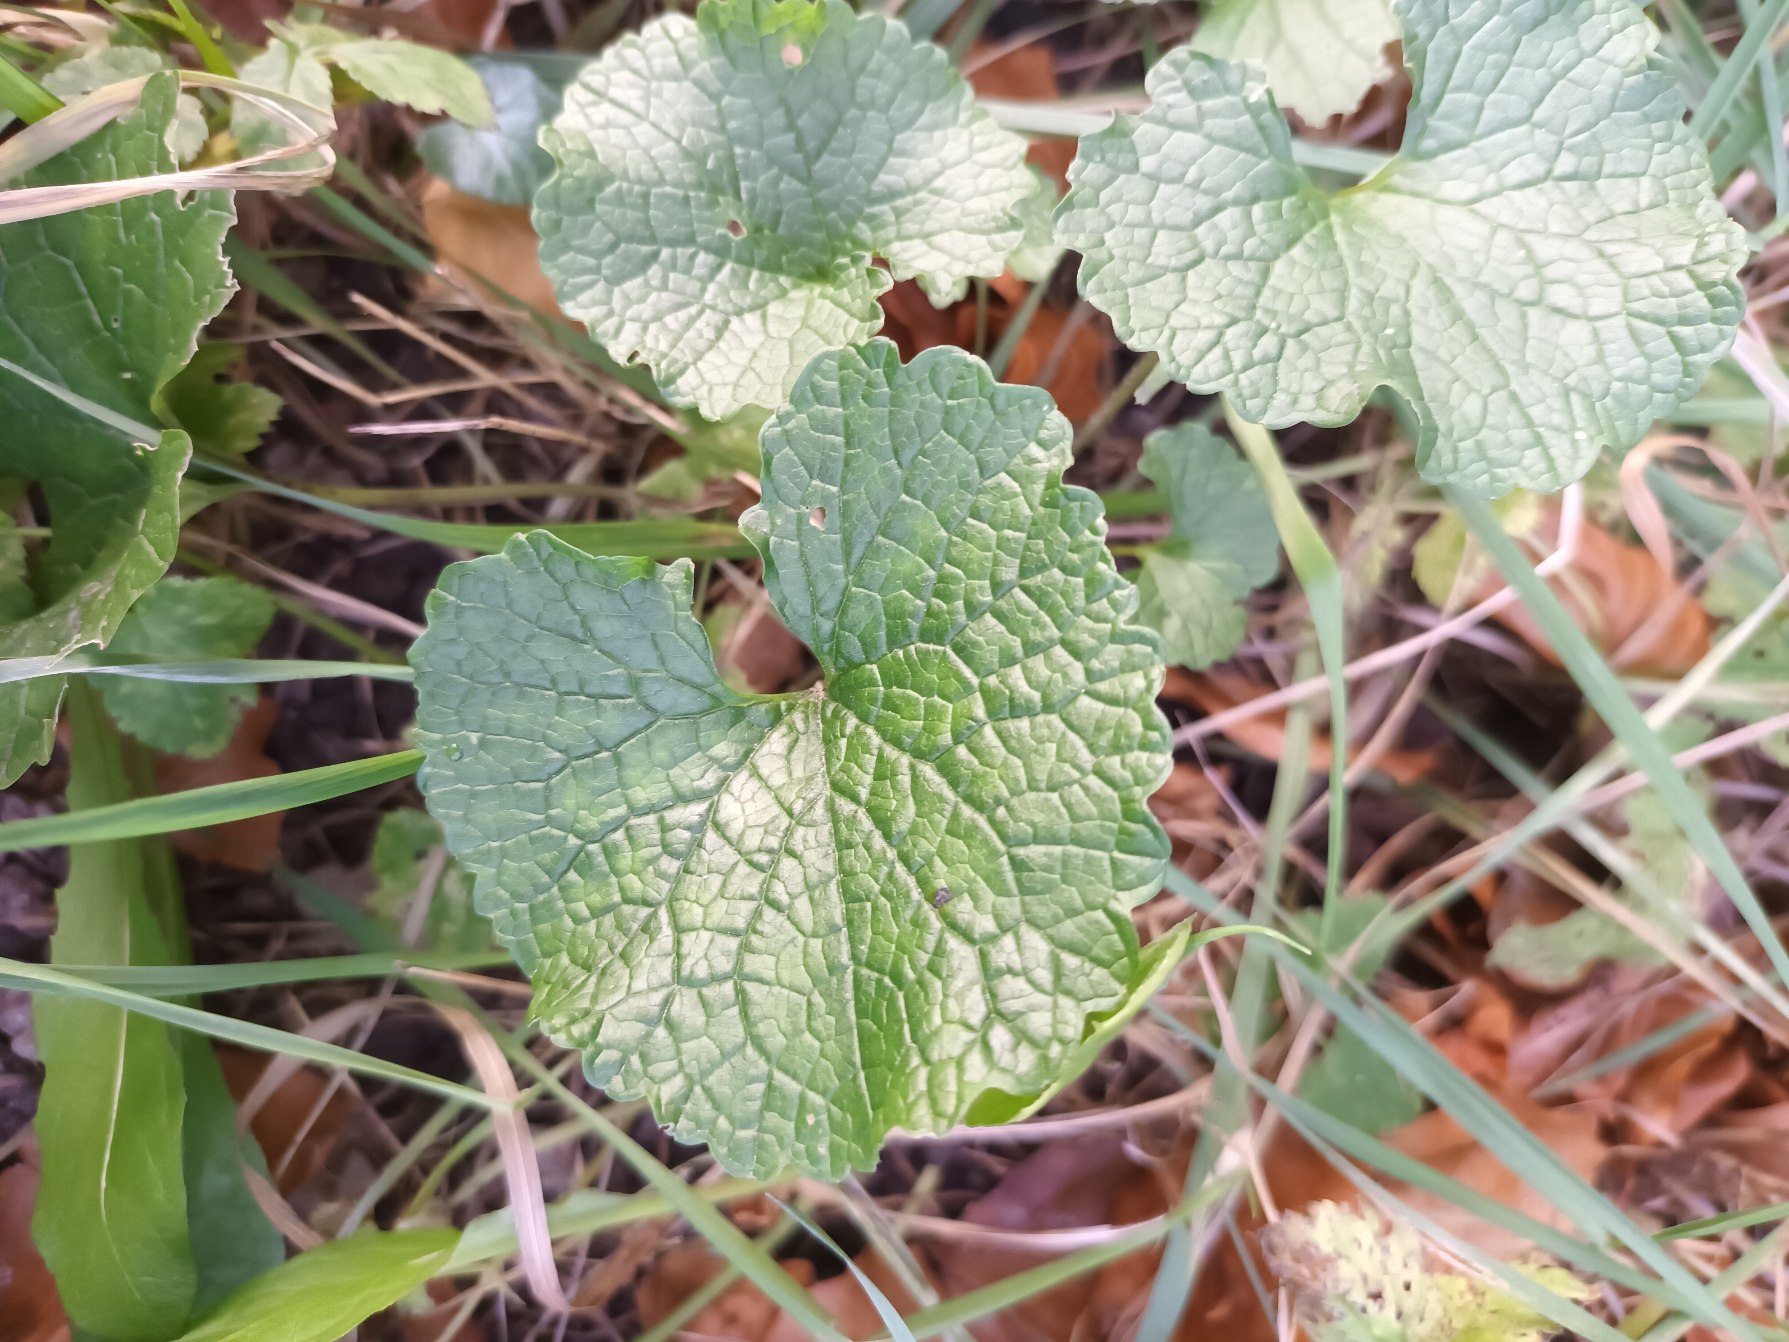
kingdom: Plantae
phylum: Tracheophyta
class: Magnoliopsida
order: Brassicales
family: Brassicaceae
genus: Alliaria
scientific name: Alliaria petiolata
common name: Løgkarse
